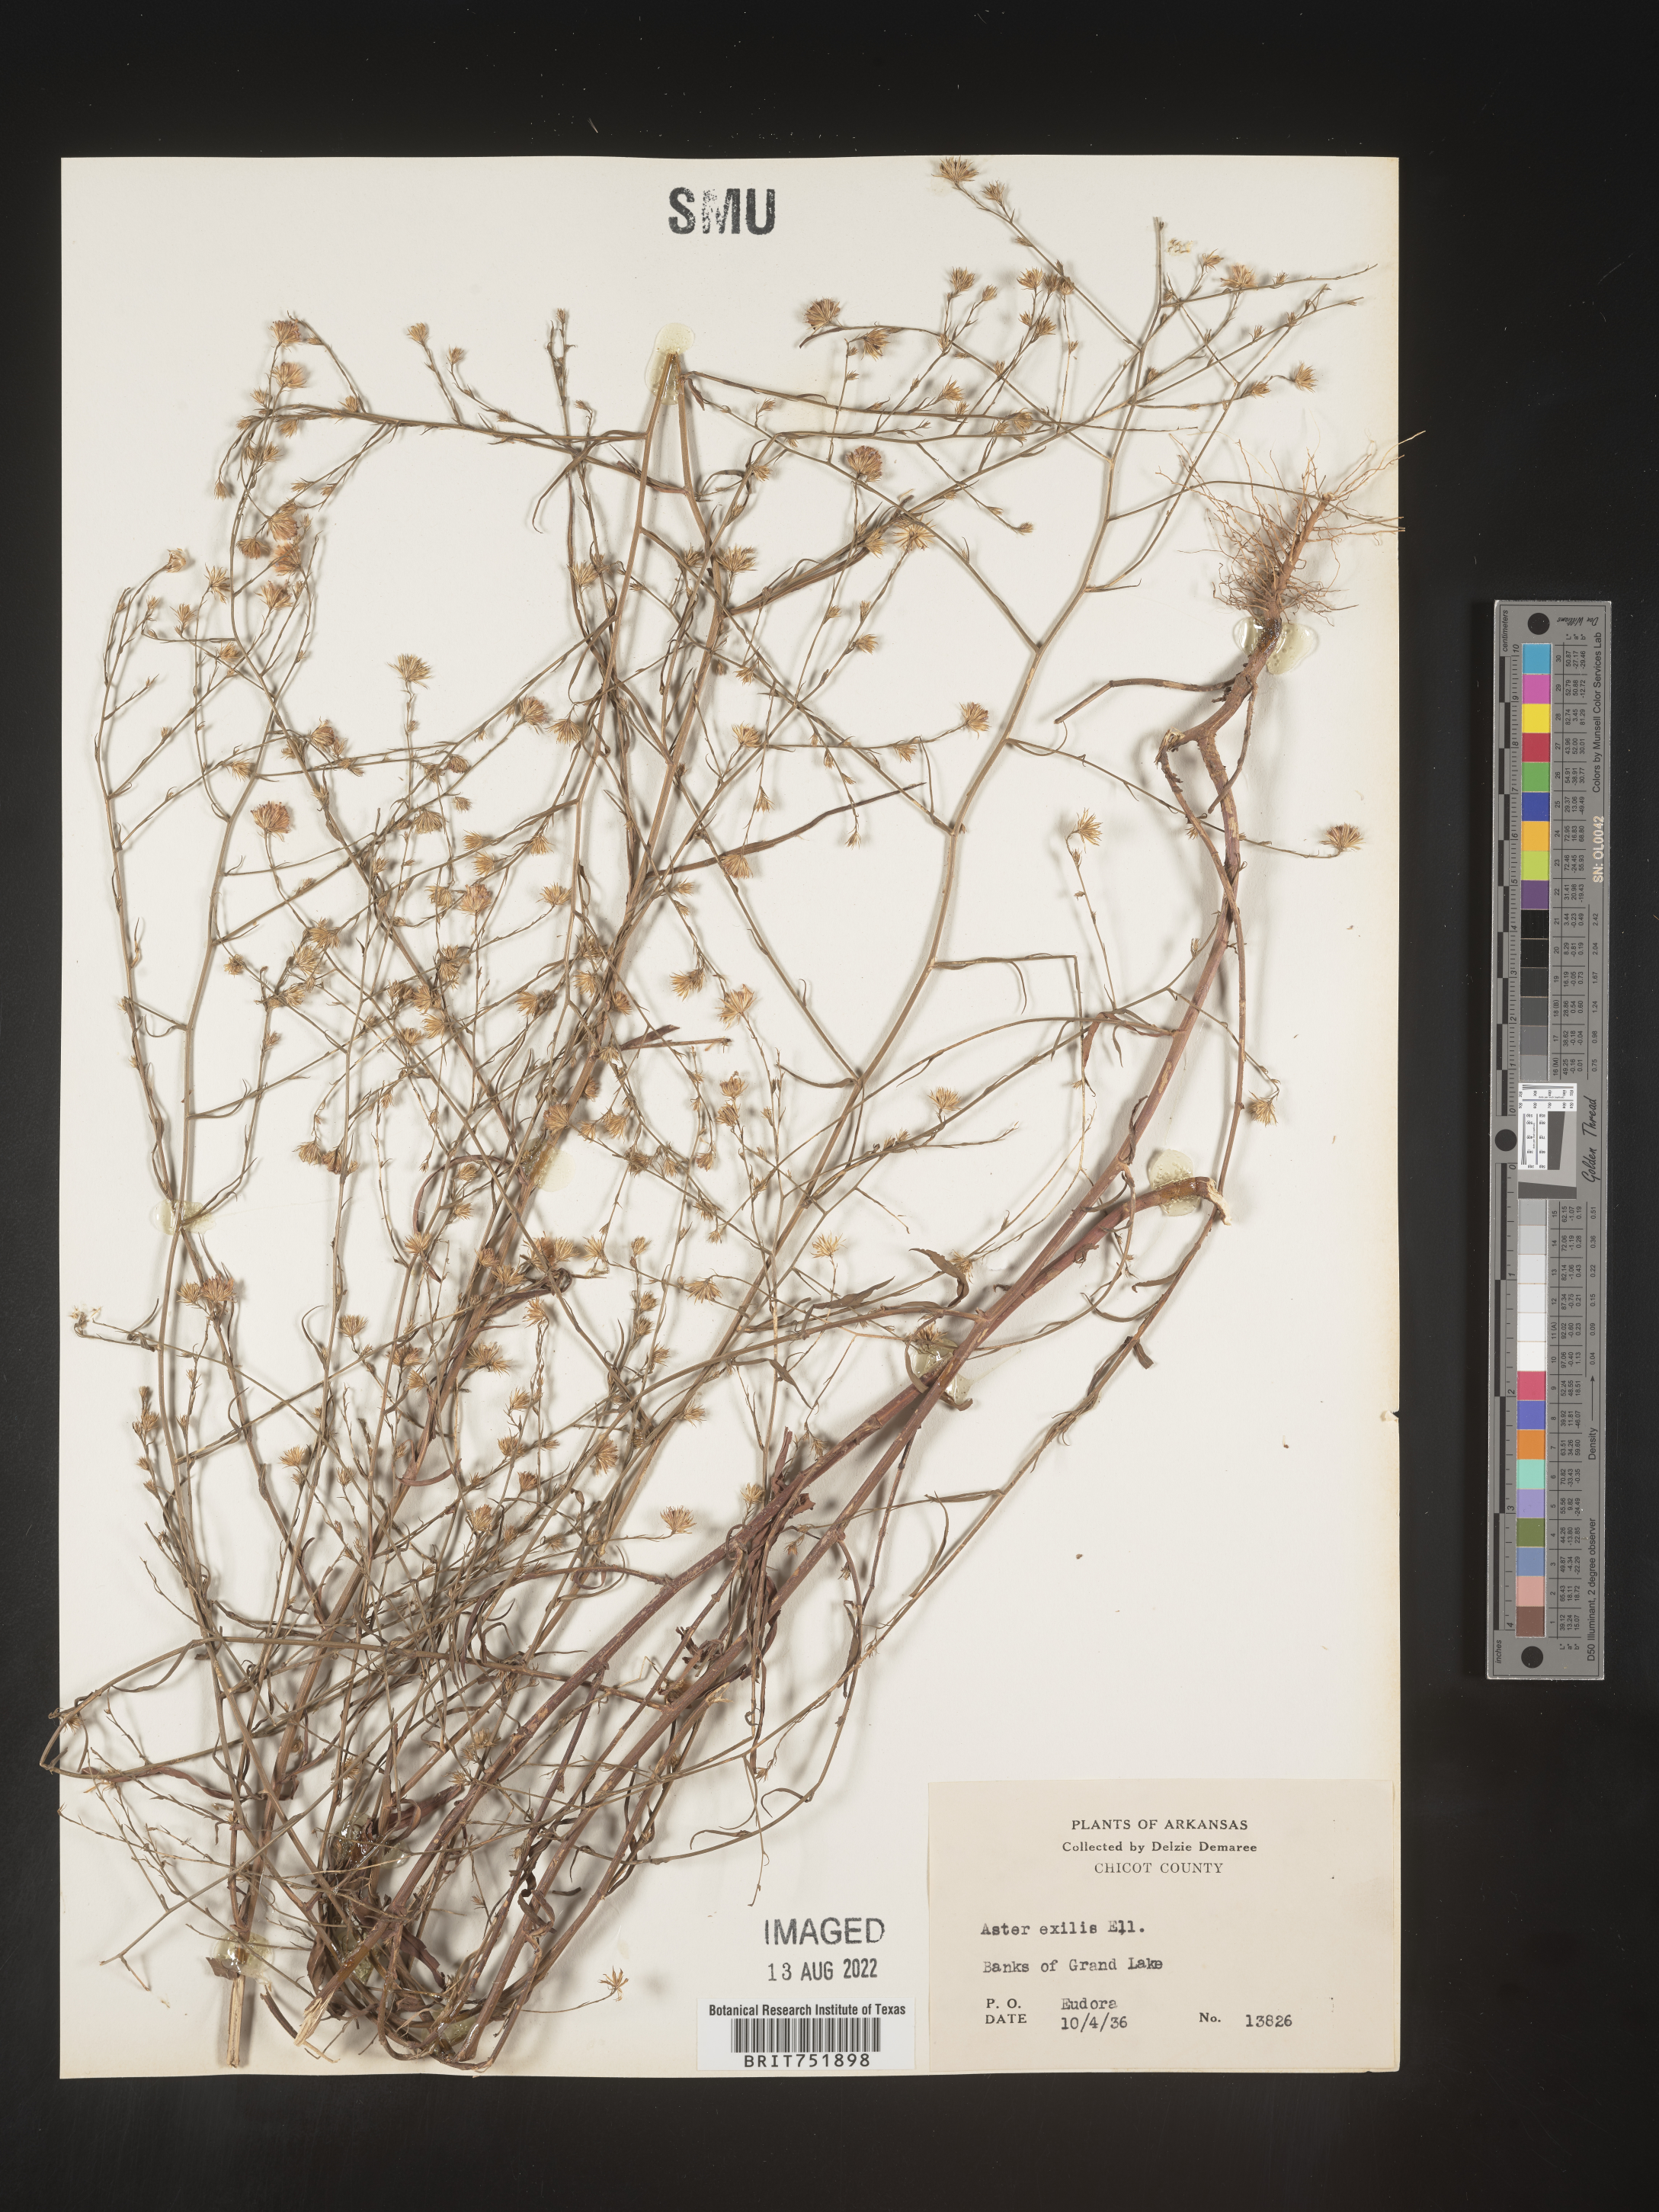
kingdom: Plantae
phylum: Tracheophyta
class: Magnoliopsida
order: Asterales
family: Asteraceae
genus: Symphyotrichum
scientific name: Symphyotrichum divaricatum
